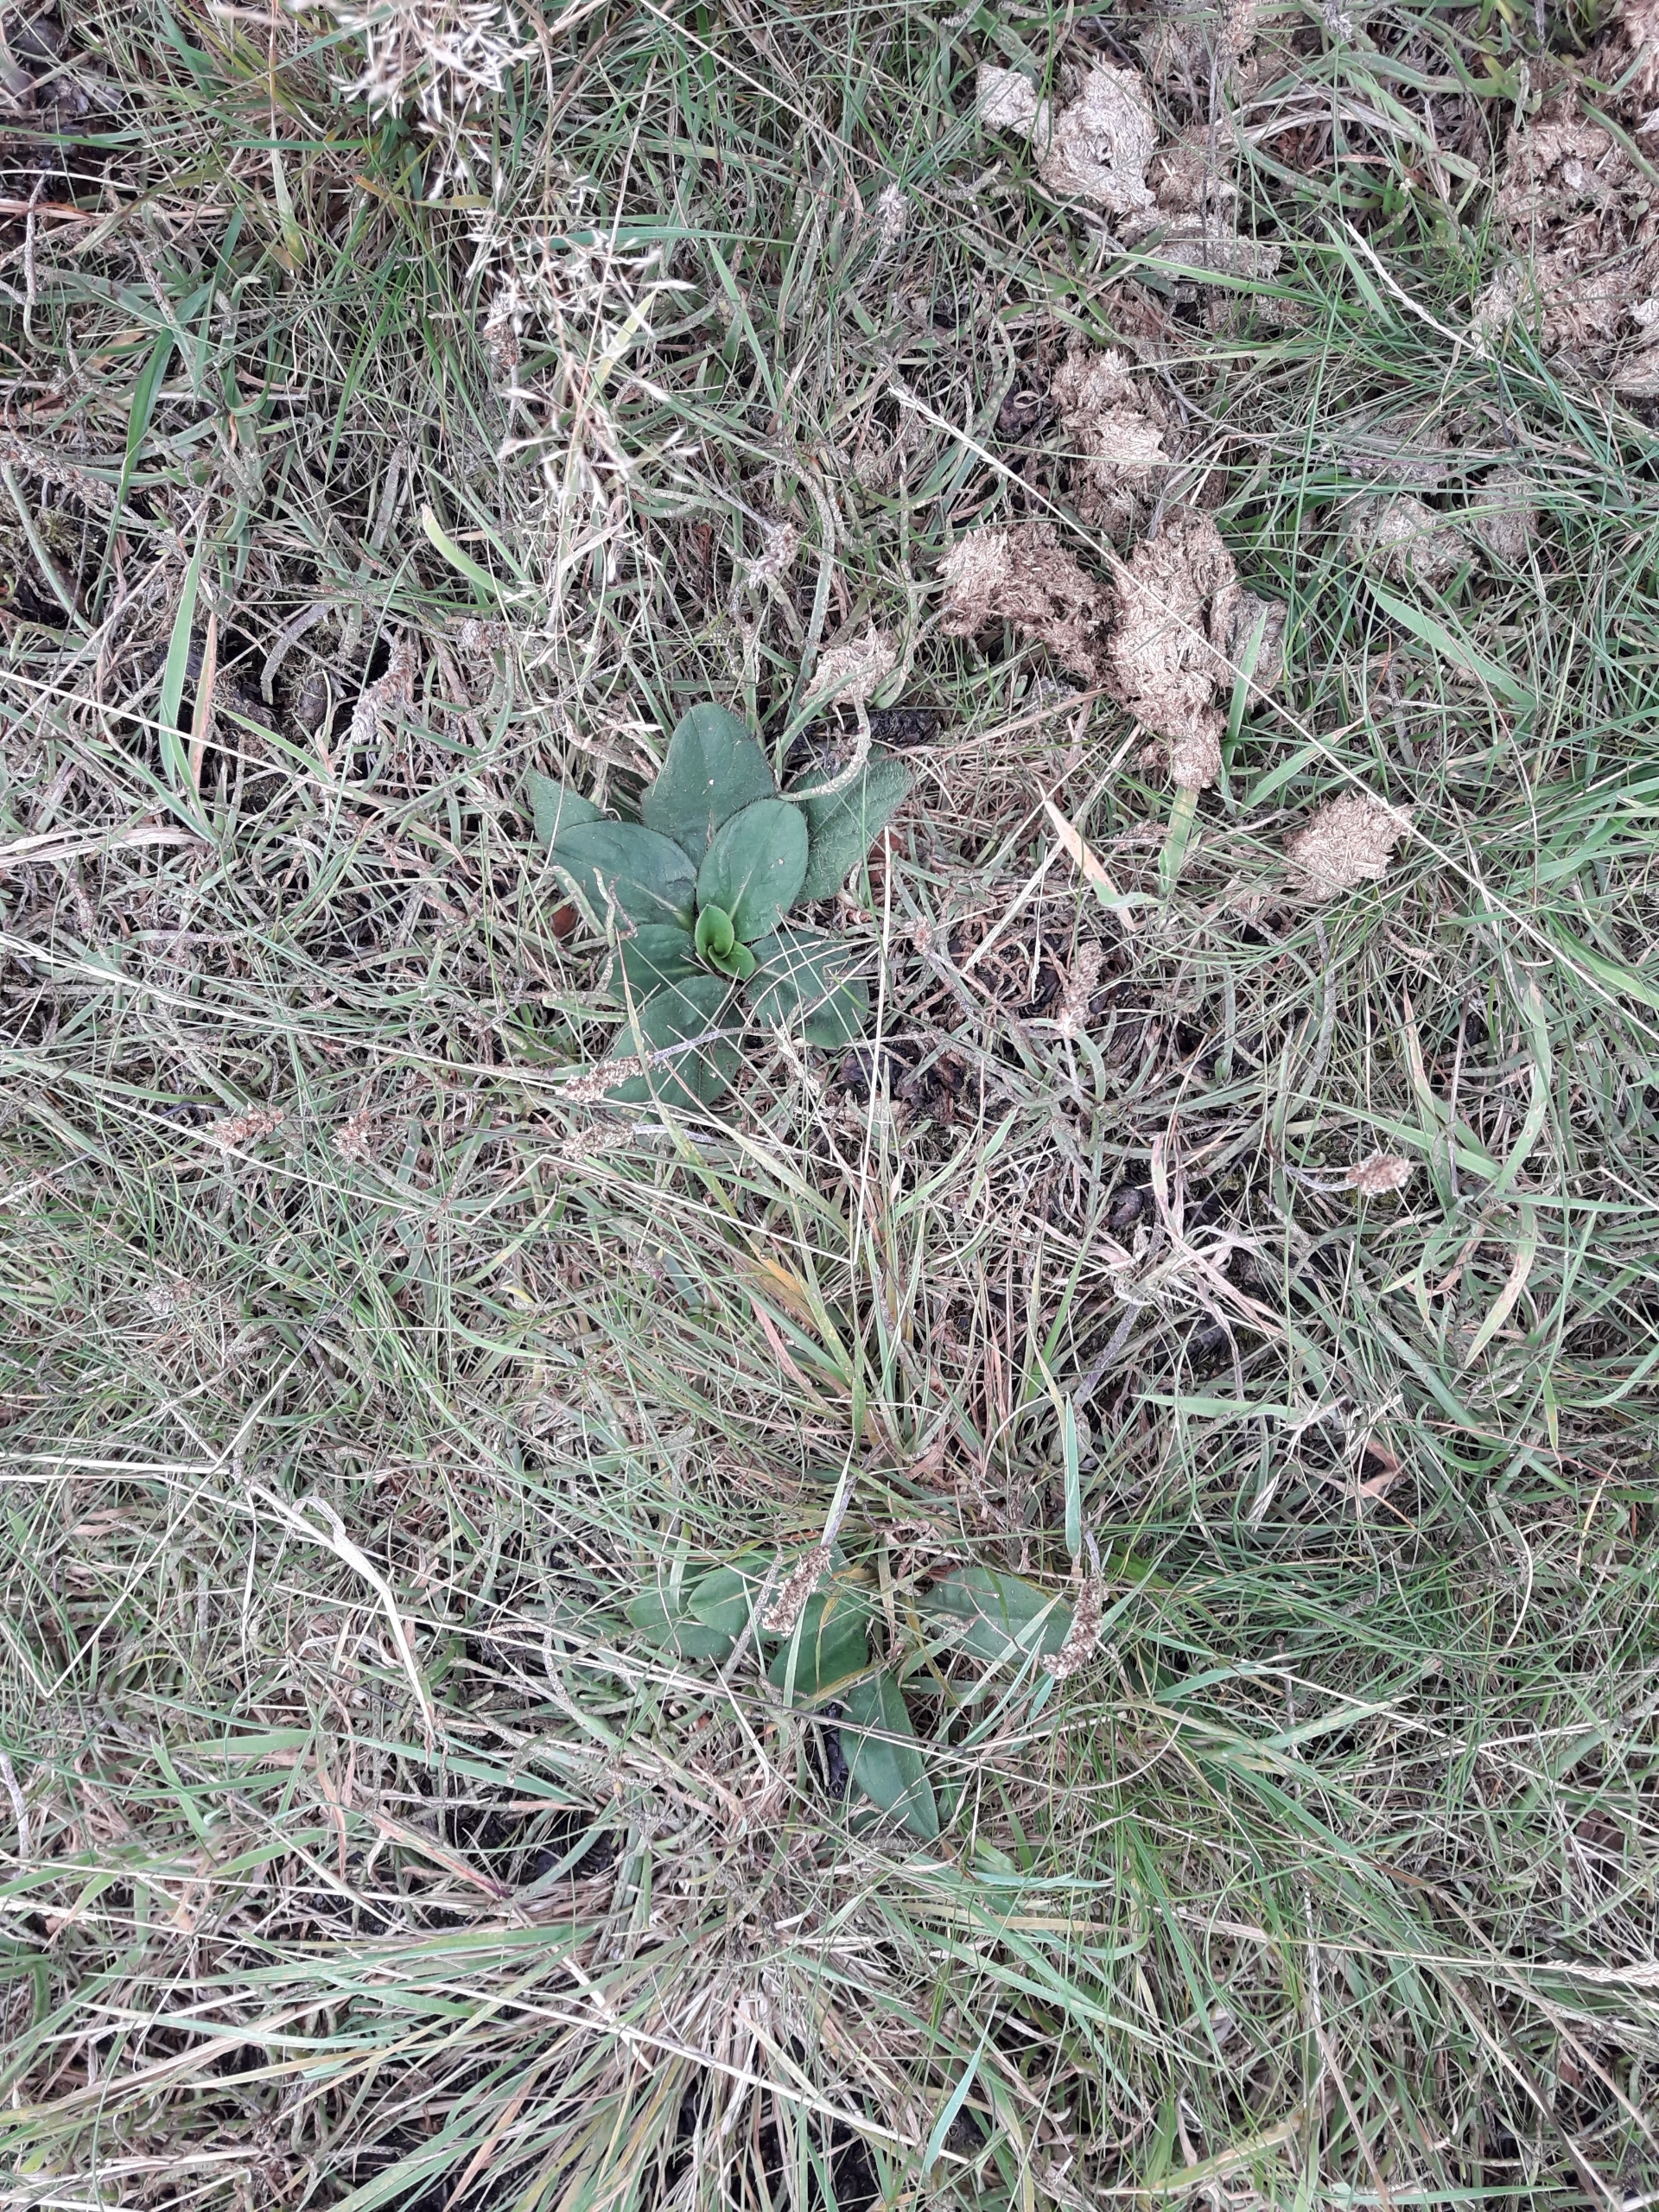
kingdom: Plantae
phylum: Tracheophyta
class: Magnoliopsida
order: Dipsacales
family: Caprifoliaceae
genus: Succisa
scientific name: Succisa pratensis
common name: Djævelsbid
